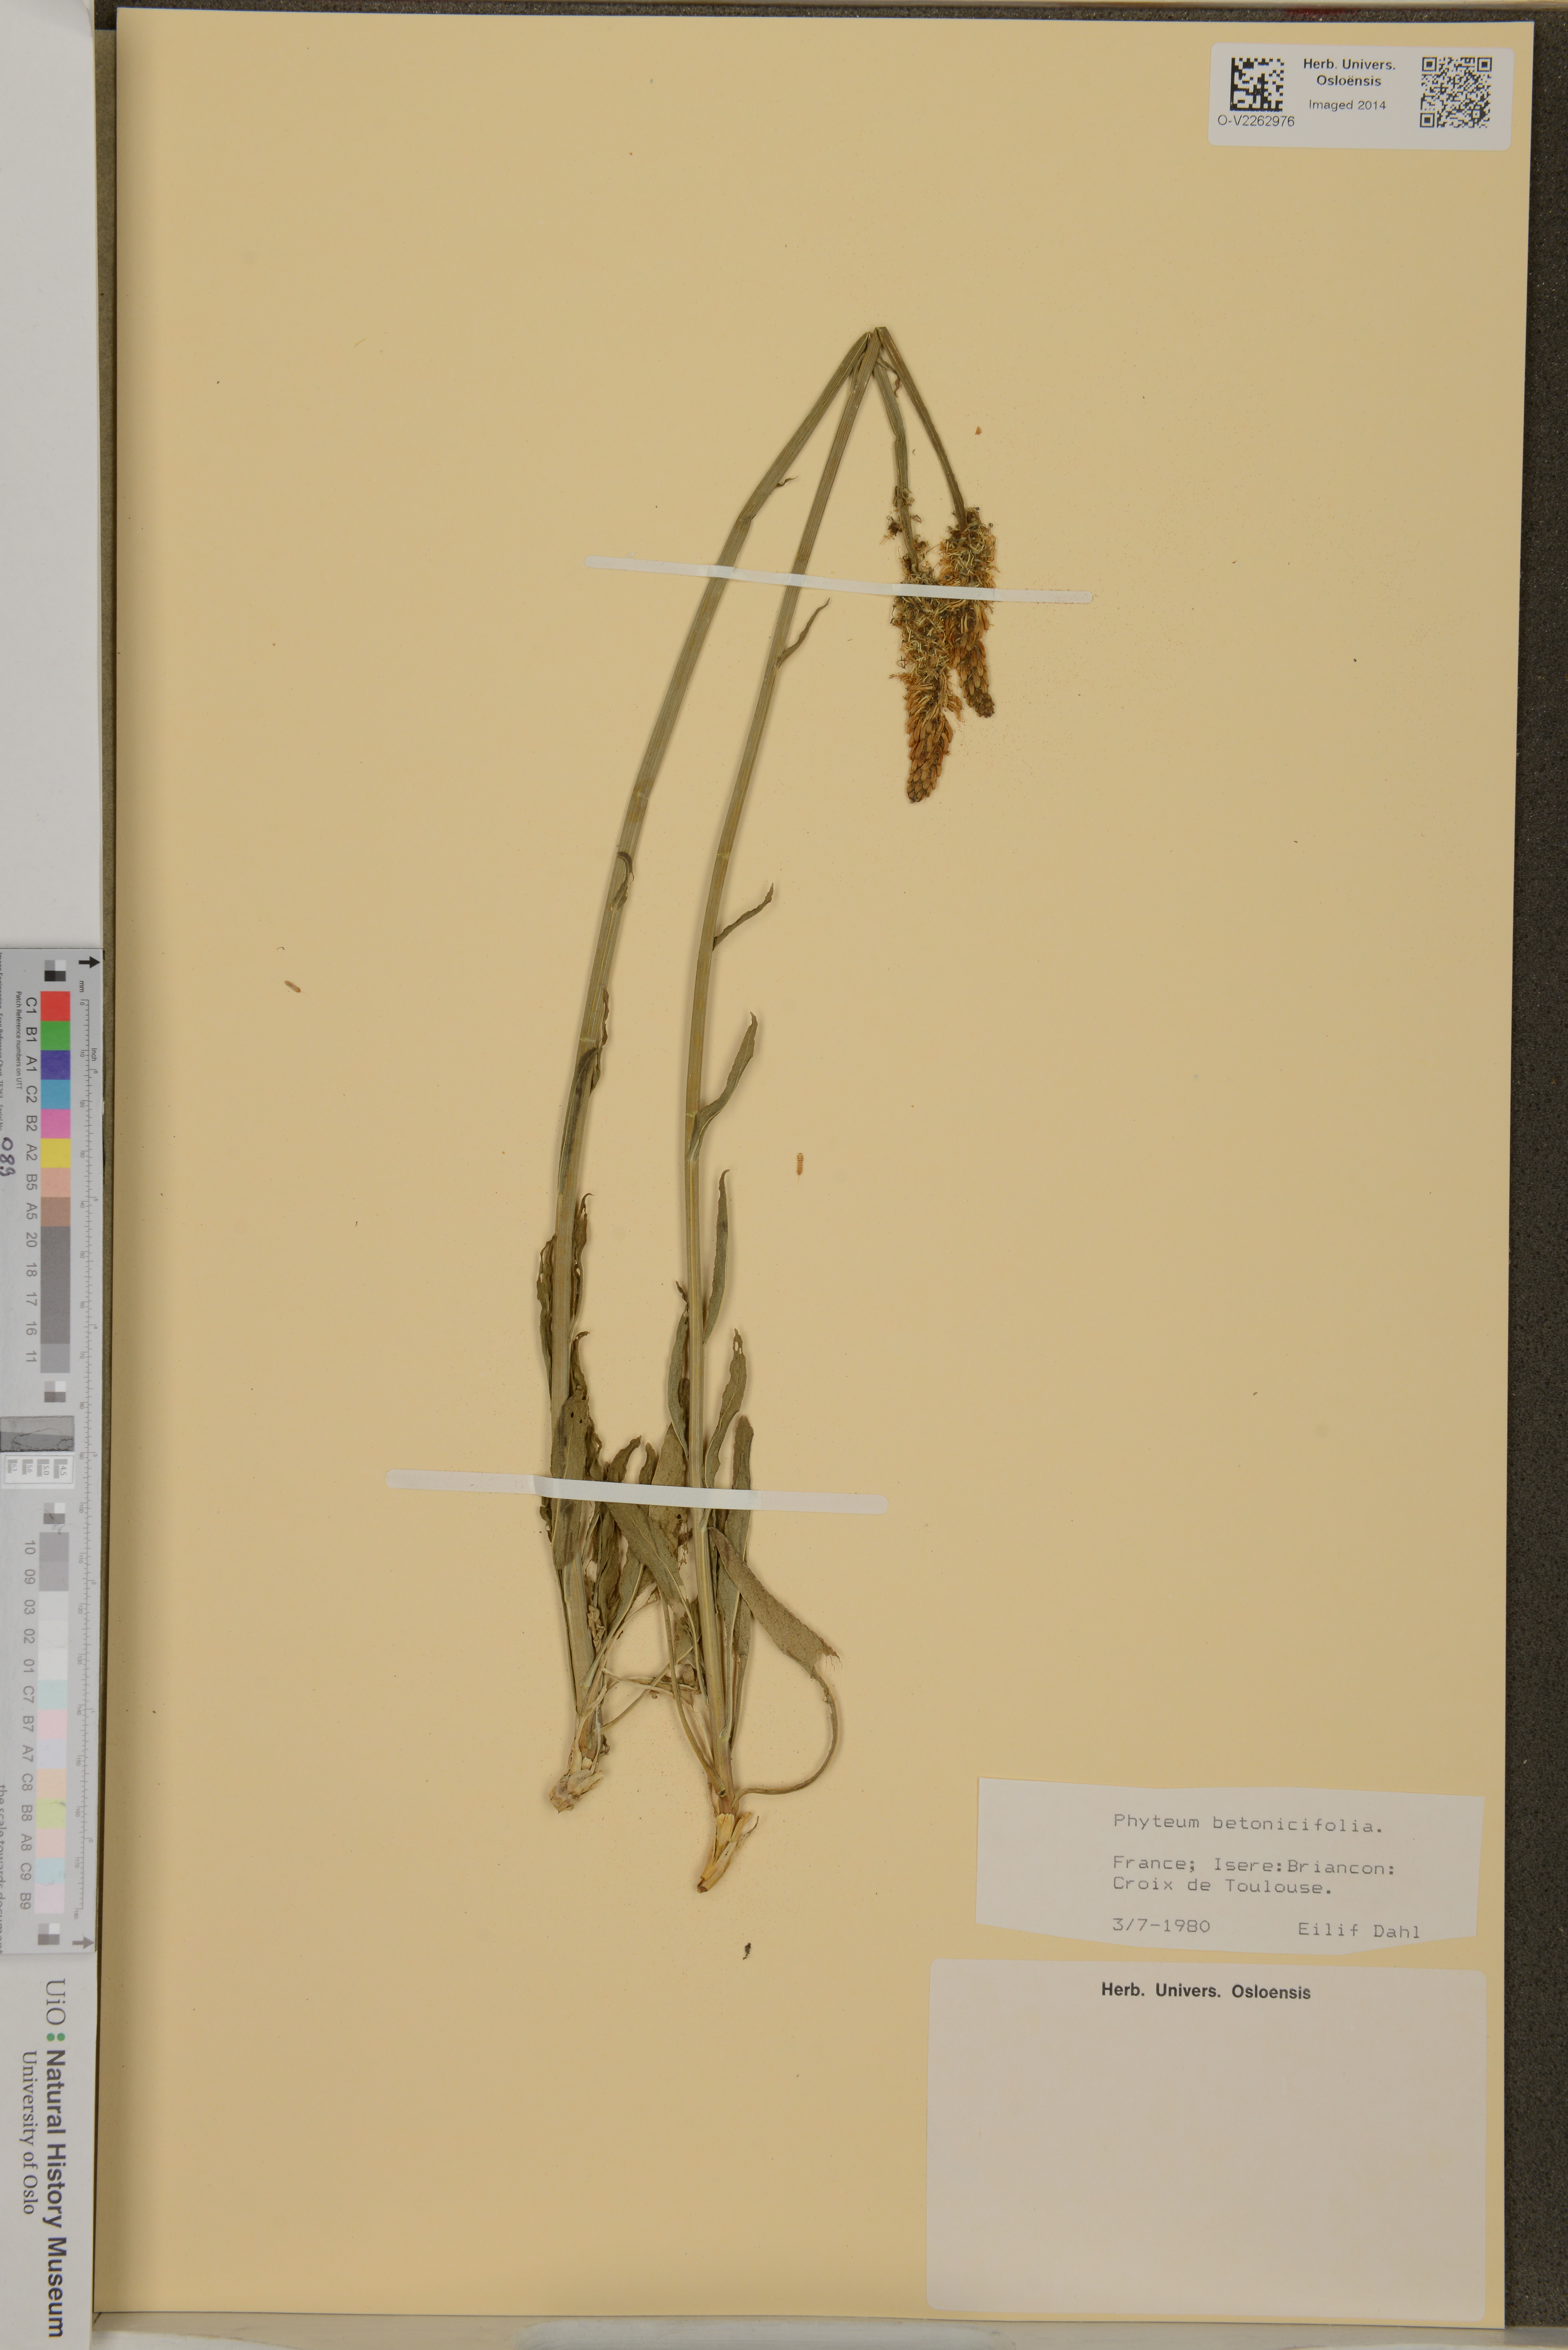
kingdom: Plantae
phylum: Tracheophyta
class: Magnoliopsida
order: Asterales
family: Campanulaceae
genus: Phyteuma
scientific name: Phyteuma betonicifolium
